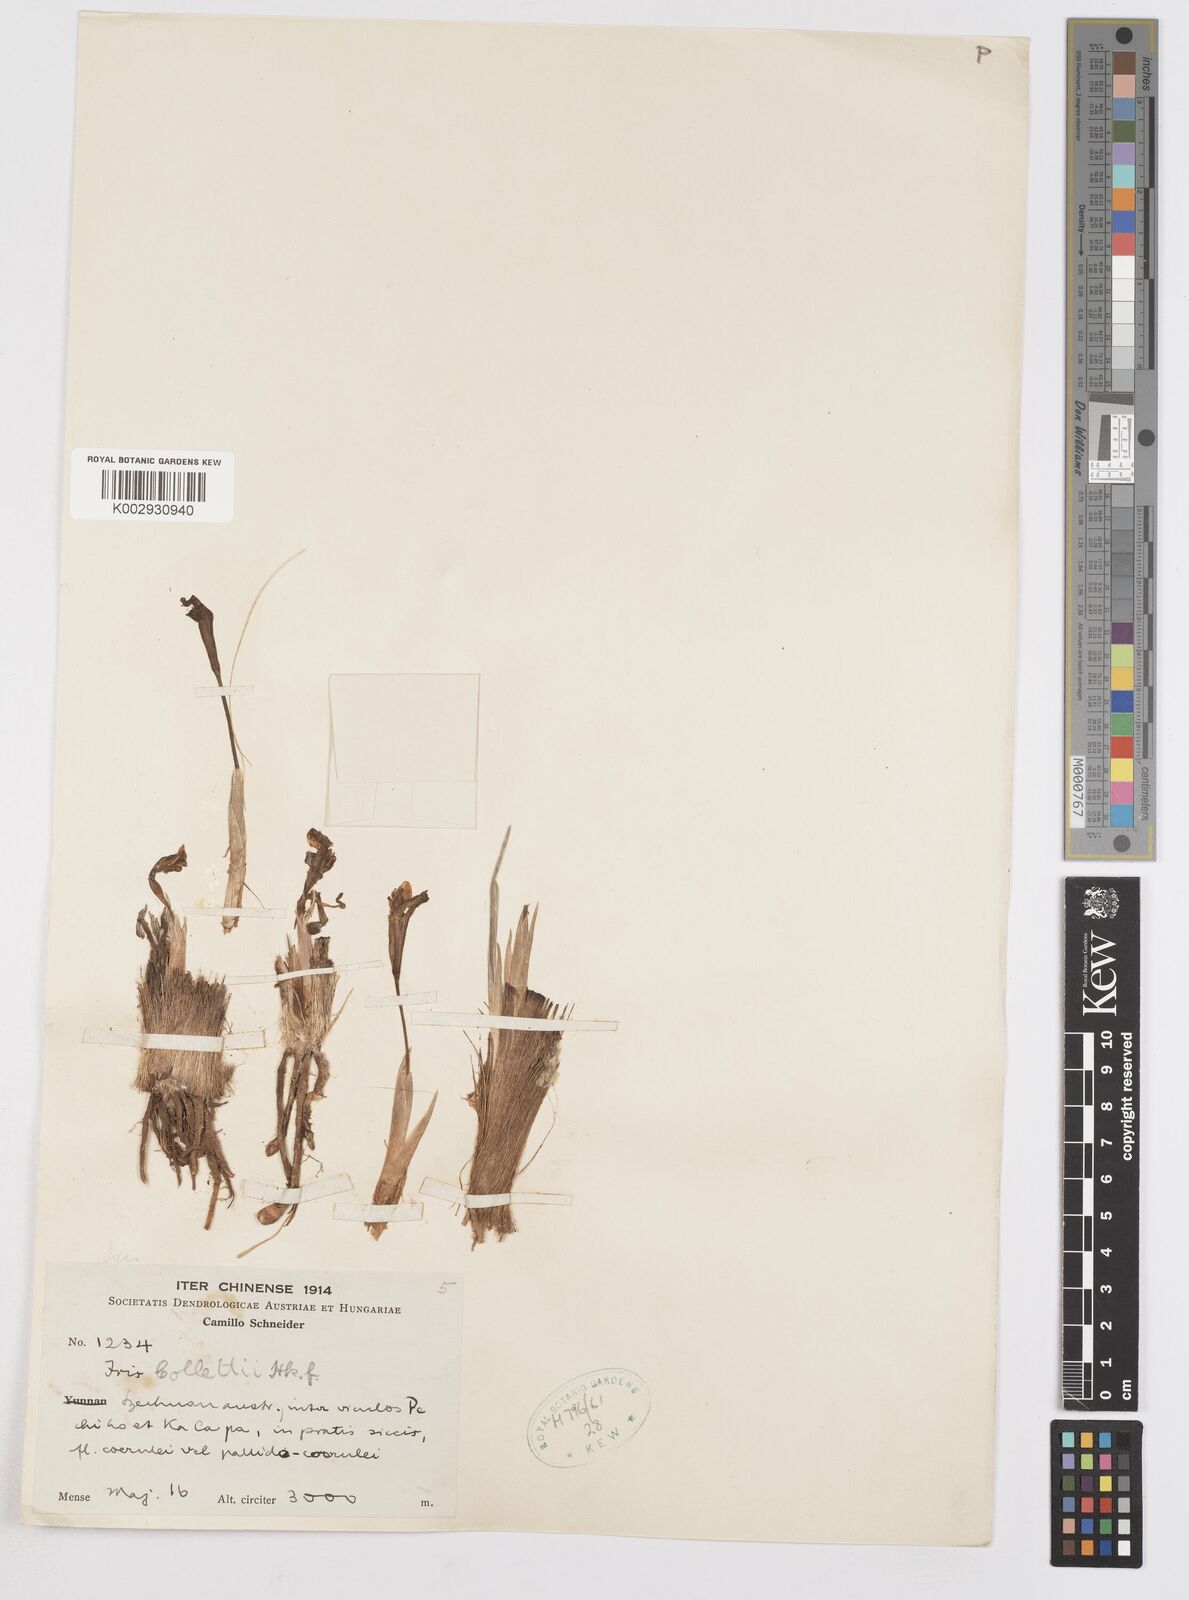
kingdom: Plantae
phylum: Tracheophyta
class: Liliopsida
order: Asparagales
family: Iridaceae
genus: Iris
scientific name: Iris collettii
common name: Plateau iris
